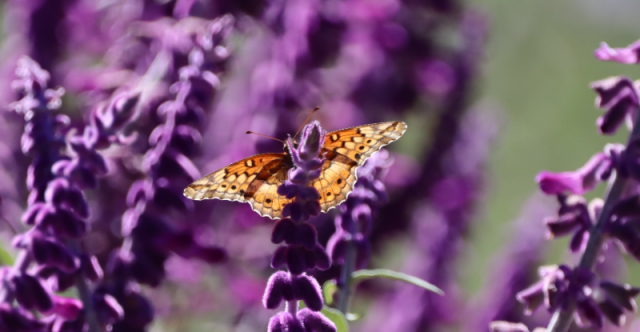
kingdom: Animalia
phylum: Arthropoda
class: Insecta
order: Lepidoptera
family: Nymphalidae
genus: Euptoieta
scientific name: Euptoieta claudia
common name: Variegated Fritillary
